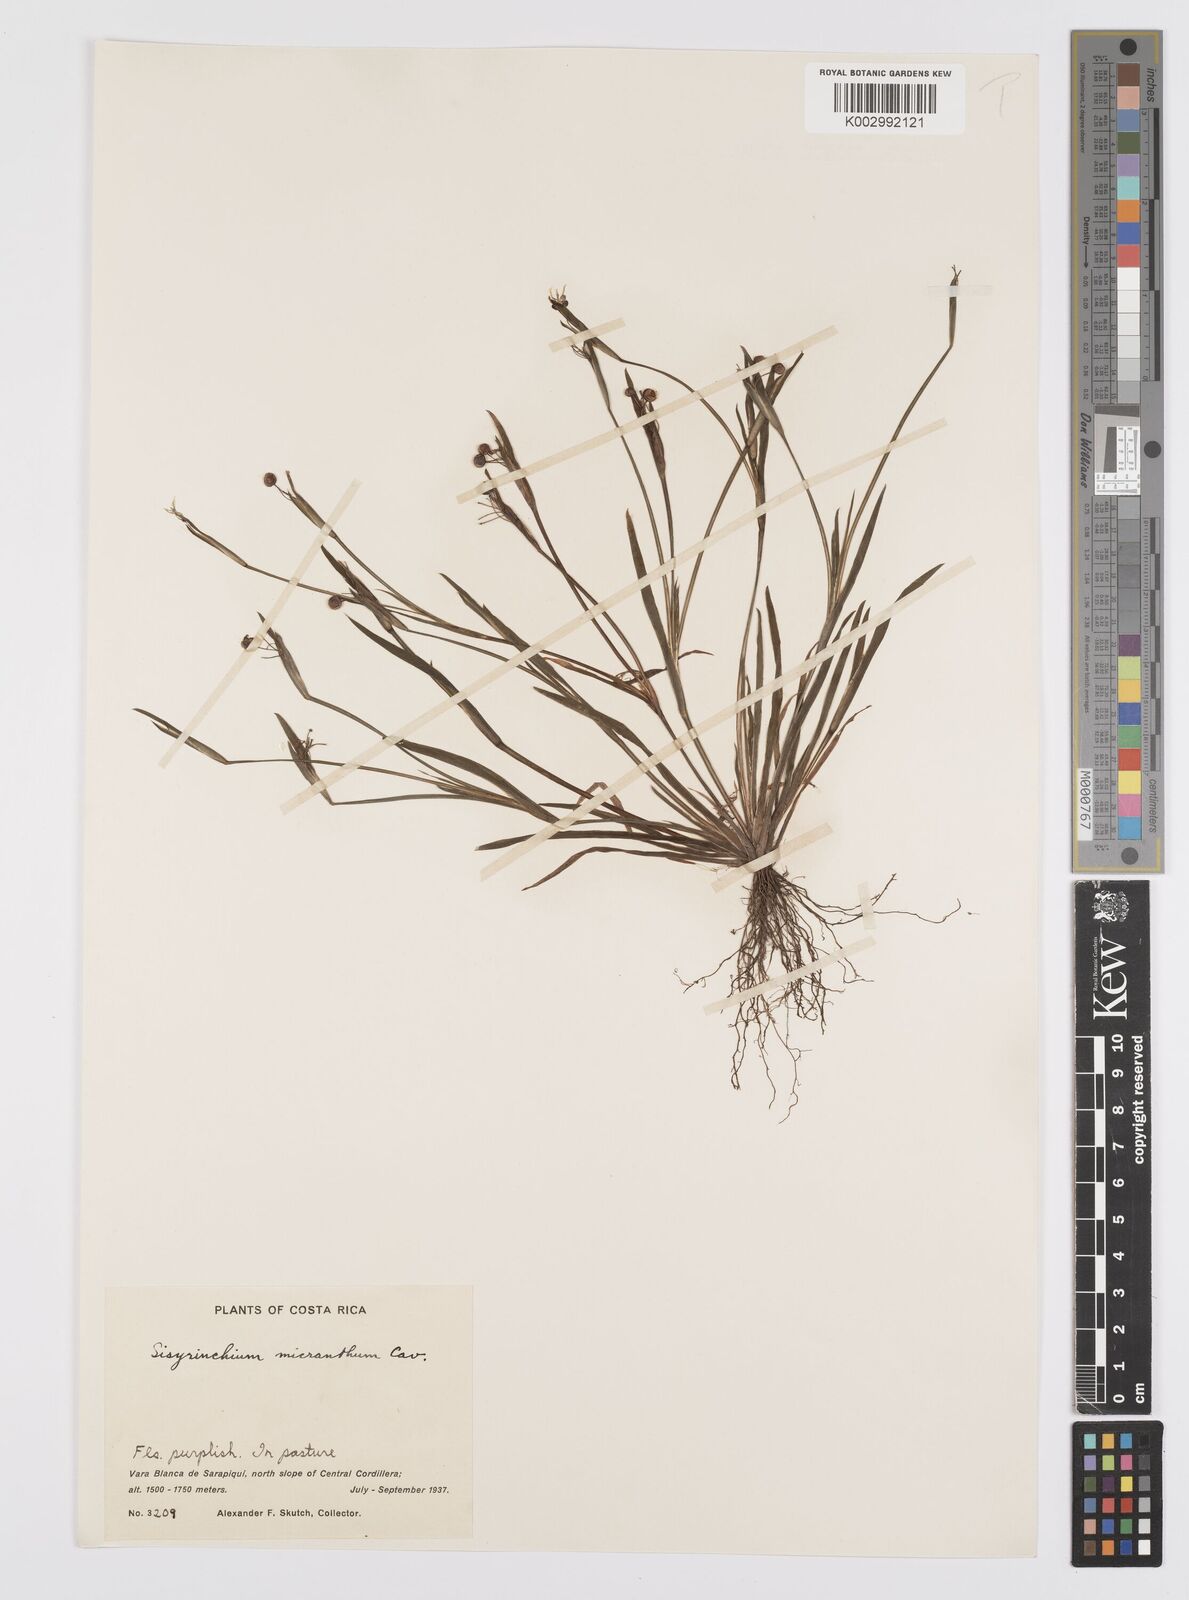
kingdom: Plantae
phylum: Tracheophyta
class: Liliopsida
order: Asparagales
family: Iridaceae
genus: Sisyrinchium
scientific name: Sisyrinchium micranthum
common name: Bermuda pigroot
